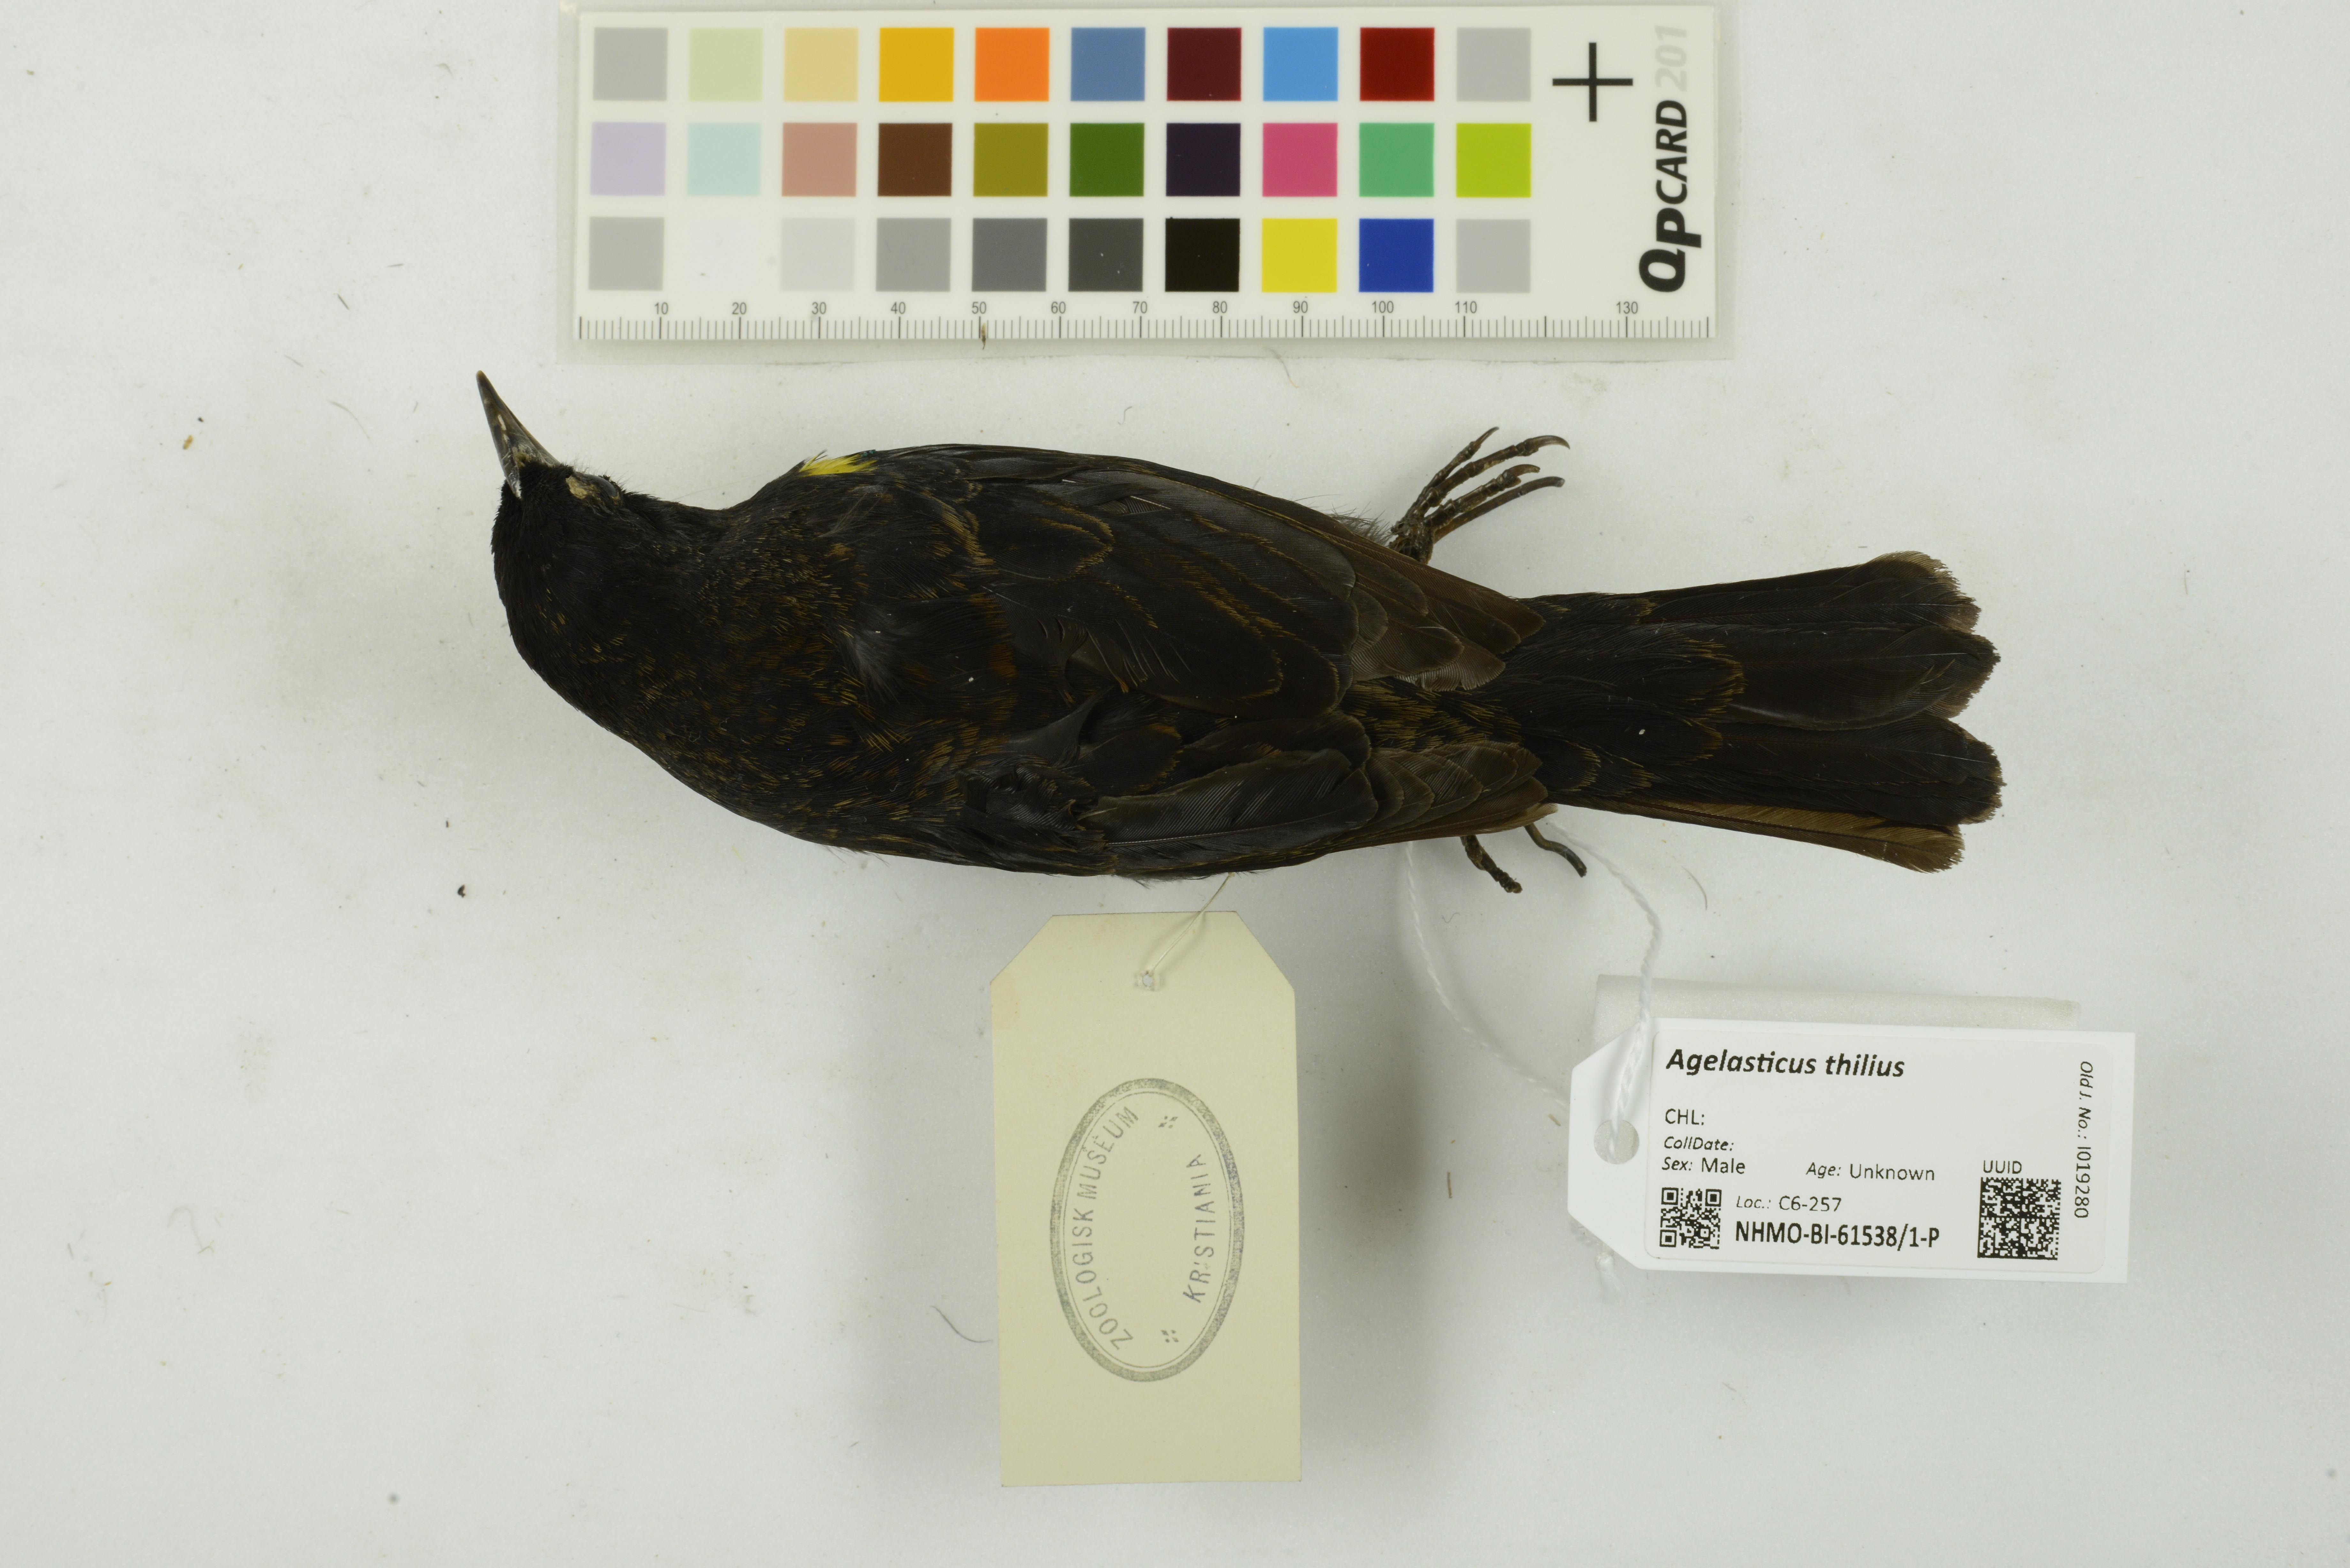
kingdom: Animalia
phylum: Chordata
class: Aves
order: Passeriformes
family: Icteridae
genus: Agelasticus
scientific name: Agelasticus thilius
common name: Yellow-winged blackbird
